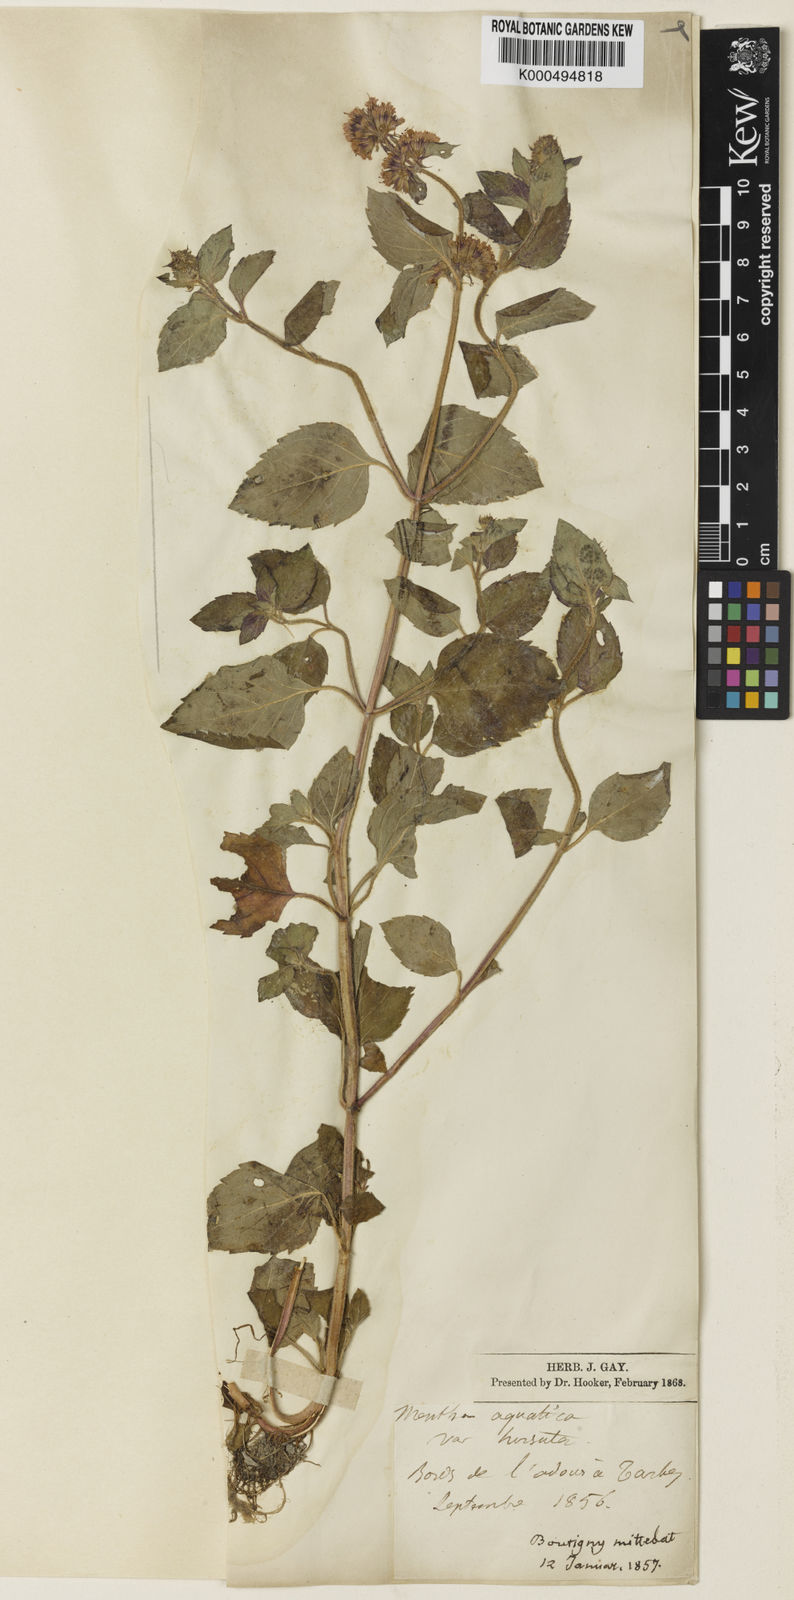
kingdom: Plantae
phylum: Tracheophyta
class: Magnoliopsida
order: Lamiales
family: Lamiaceae
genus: Mentha
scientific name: Mentha aquatica
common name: Water mint
